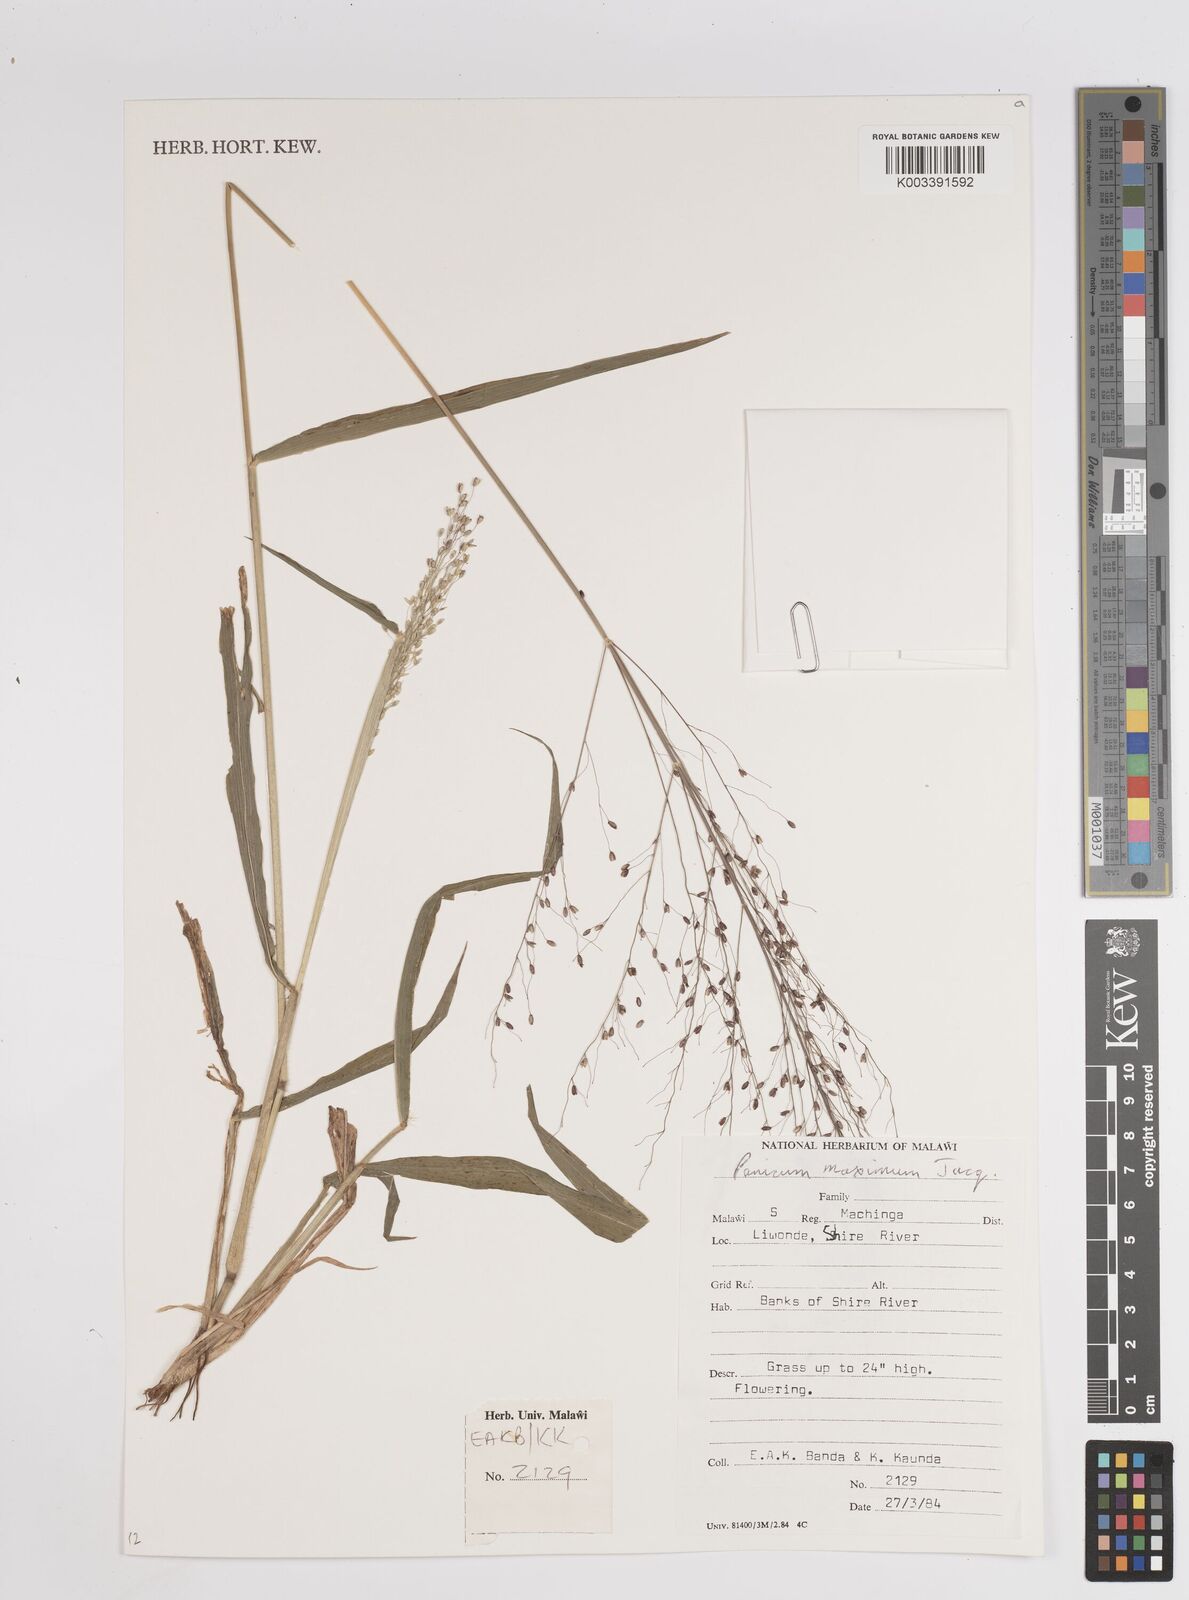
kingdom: Plantae
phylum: Tracheophyta
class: Liliopsida
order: Poales
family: Poaceae
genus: Megathyrsus
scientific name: Megathyrsus maximus
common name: Guineagrass
